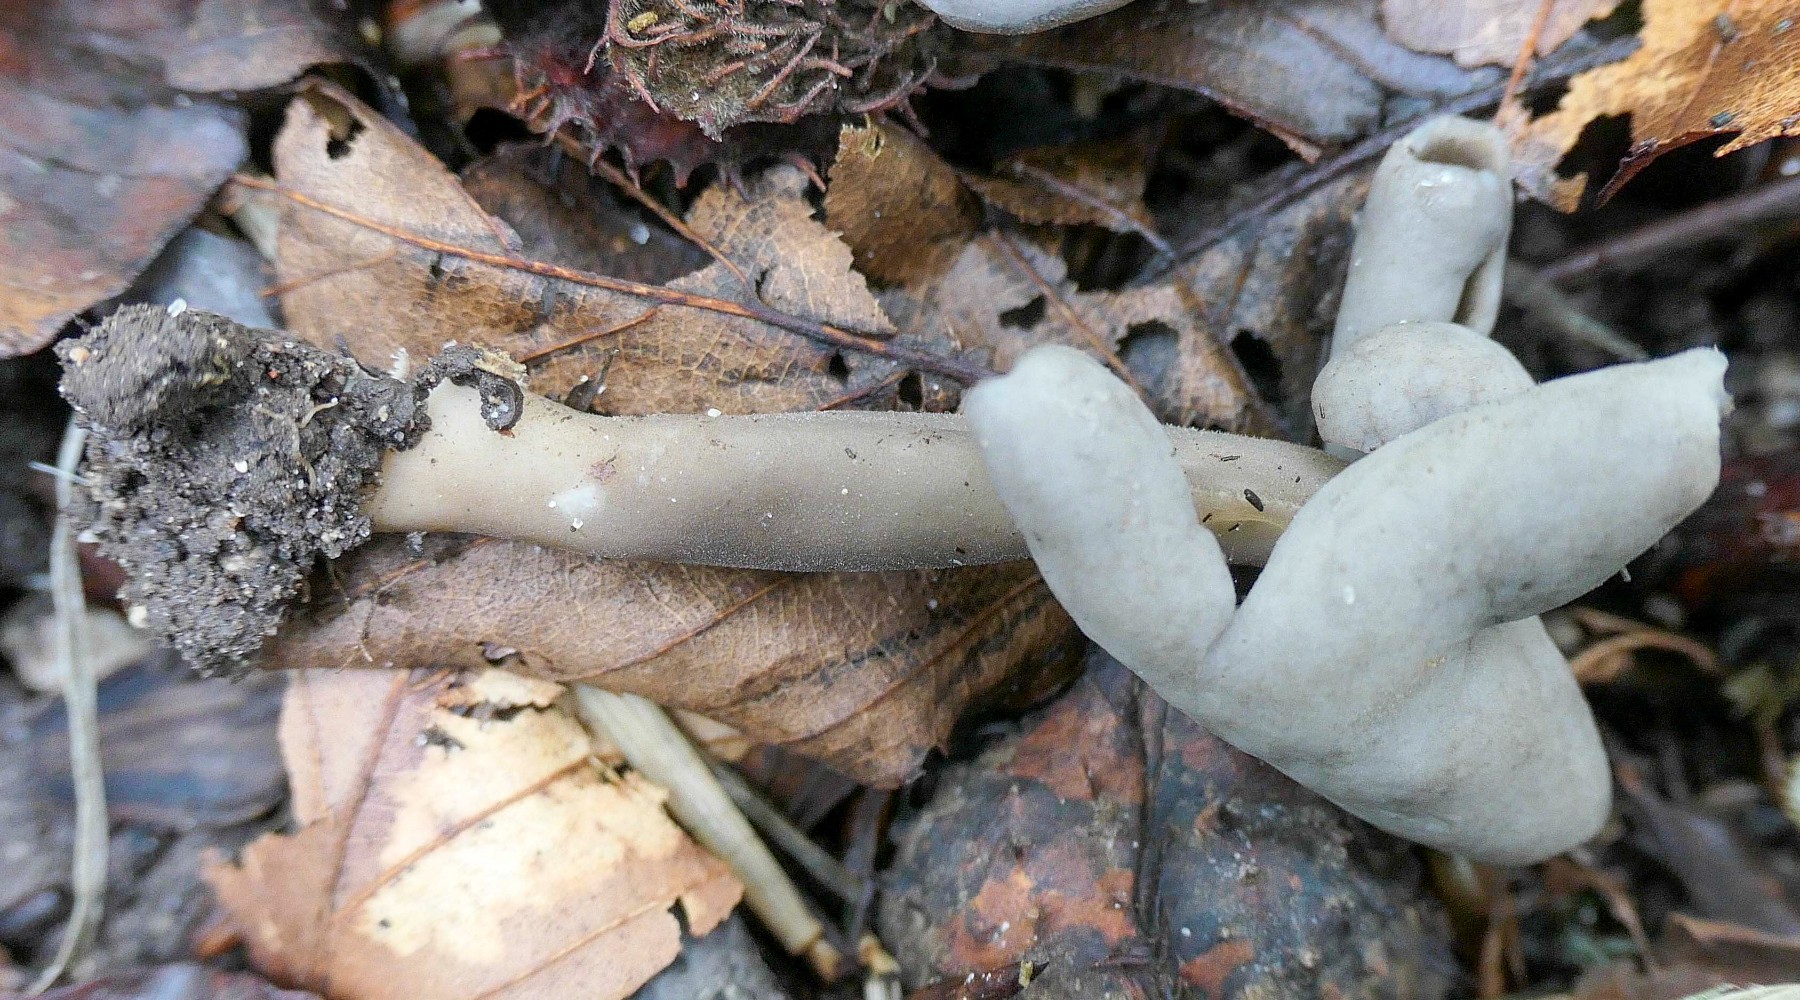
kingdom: Fungi
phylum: Ascomycota
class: Pezizomycetes
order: Pezizales
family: Helvellaceae
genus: Helvella
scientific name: Helvella
